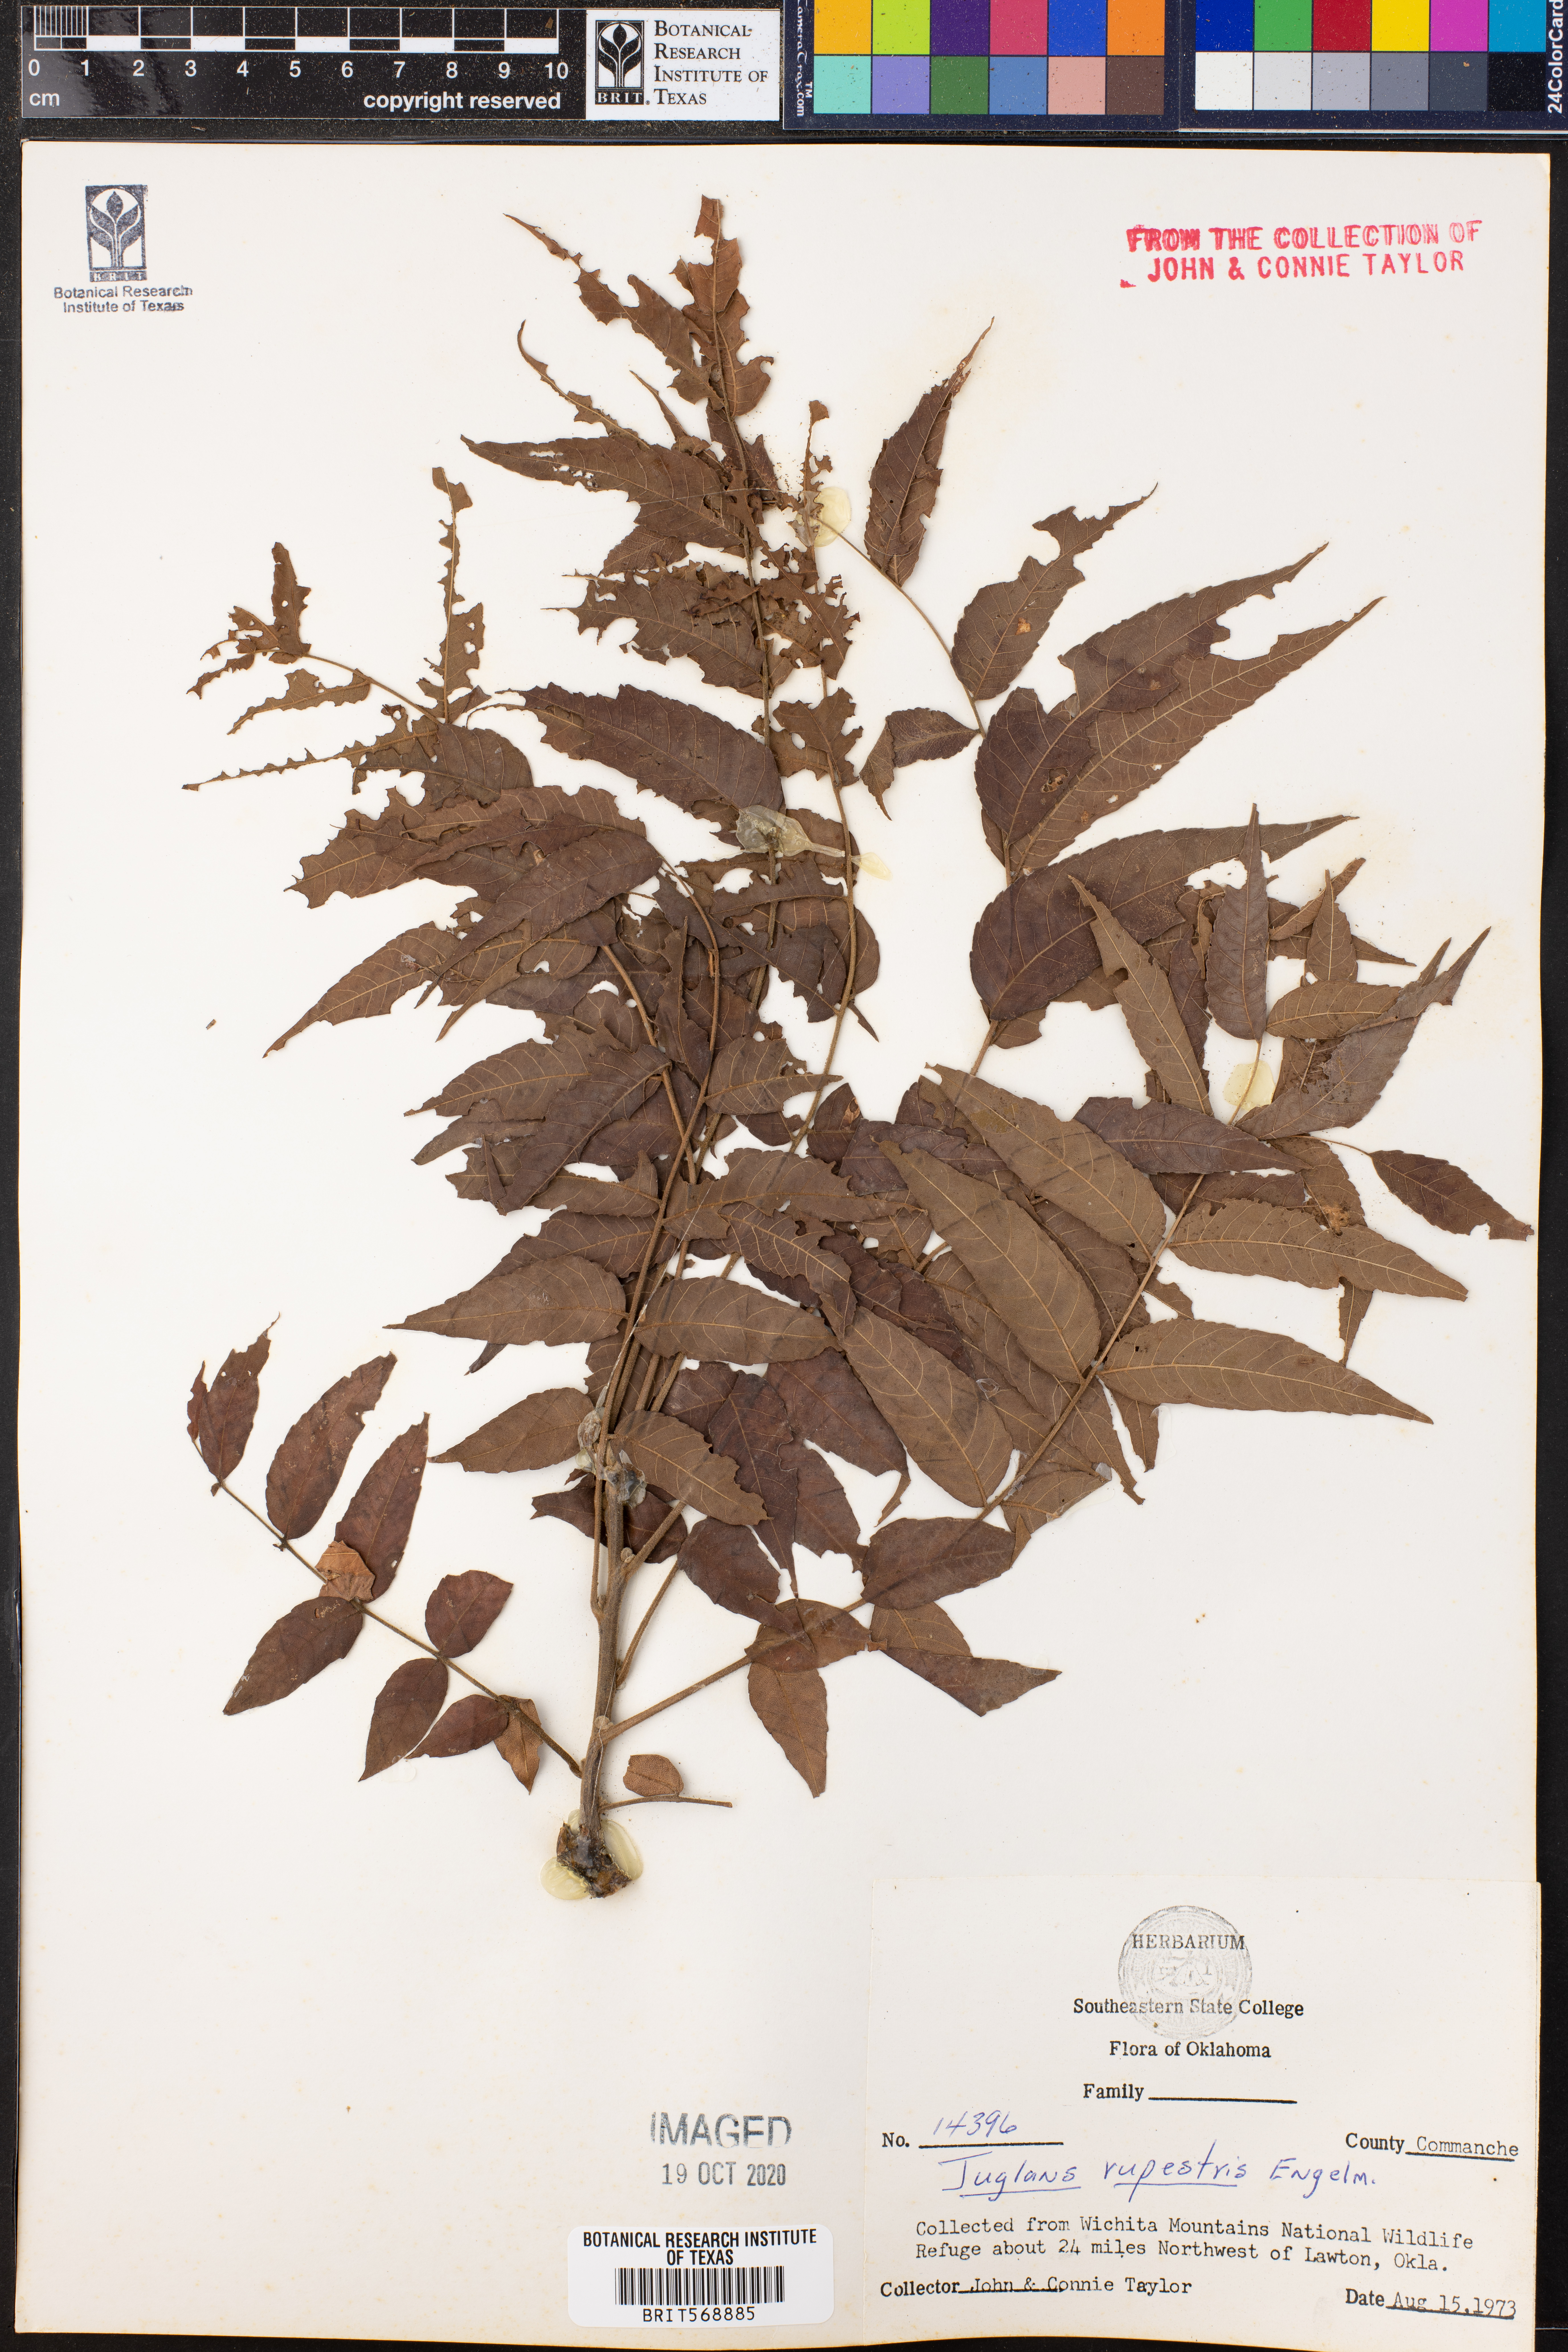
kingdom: Plantae
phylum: Tracheophyta
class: Magnoliopsida
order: Fagales
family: Juglandaceae
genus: Juglans
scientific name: Juglans microcarpa
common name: Texas walnut
